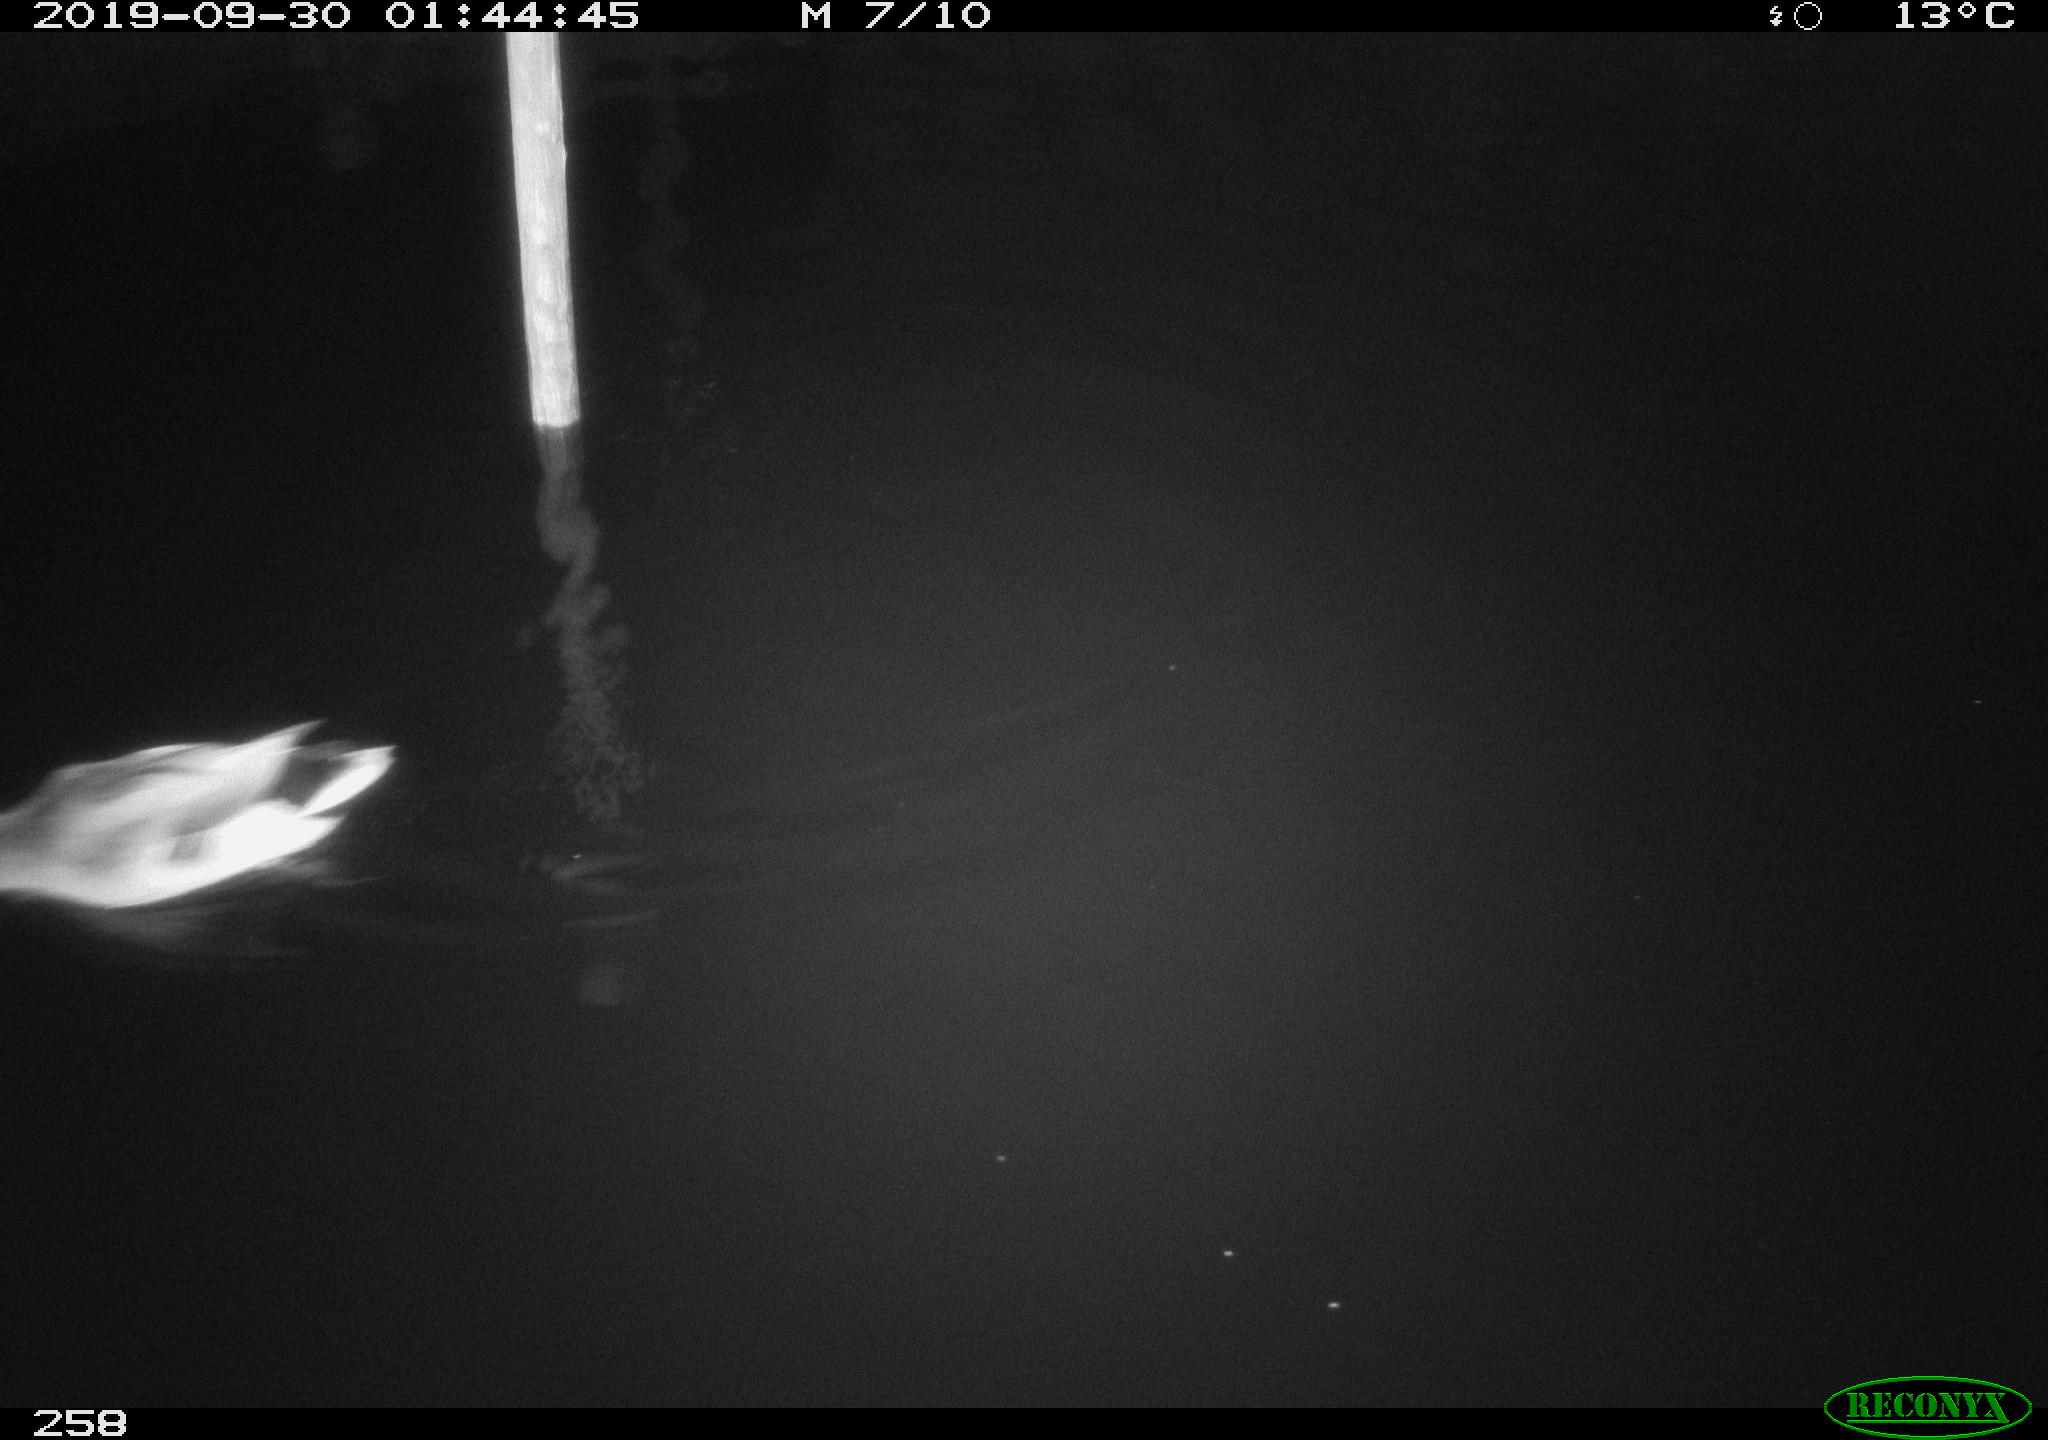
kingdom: Animalia
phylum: Chordata
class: Aves
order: Anseriformes
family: Anatidae
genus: Anas
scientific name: Anas platyrhynchos
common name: Mallard
